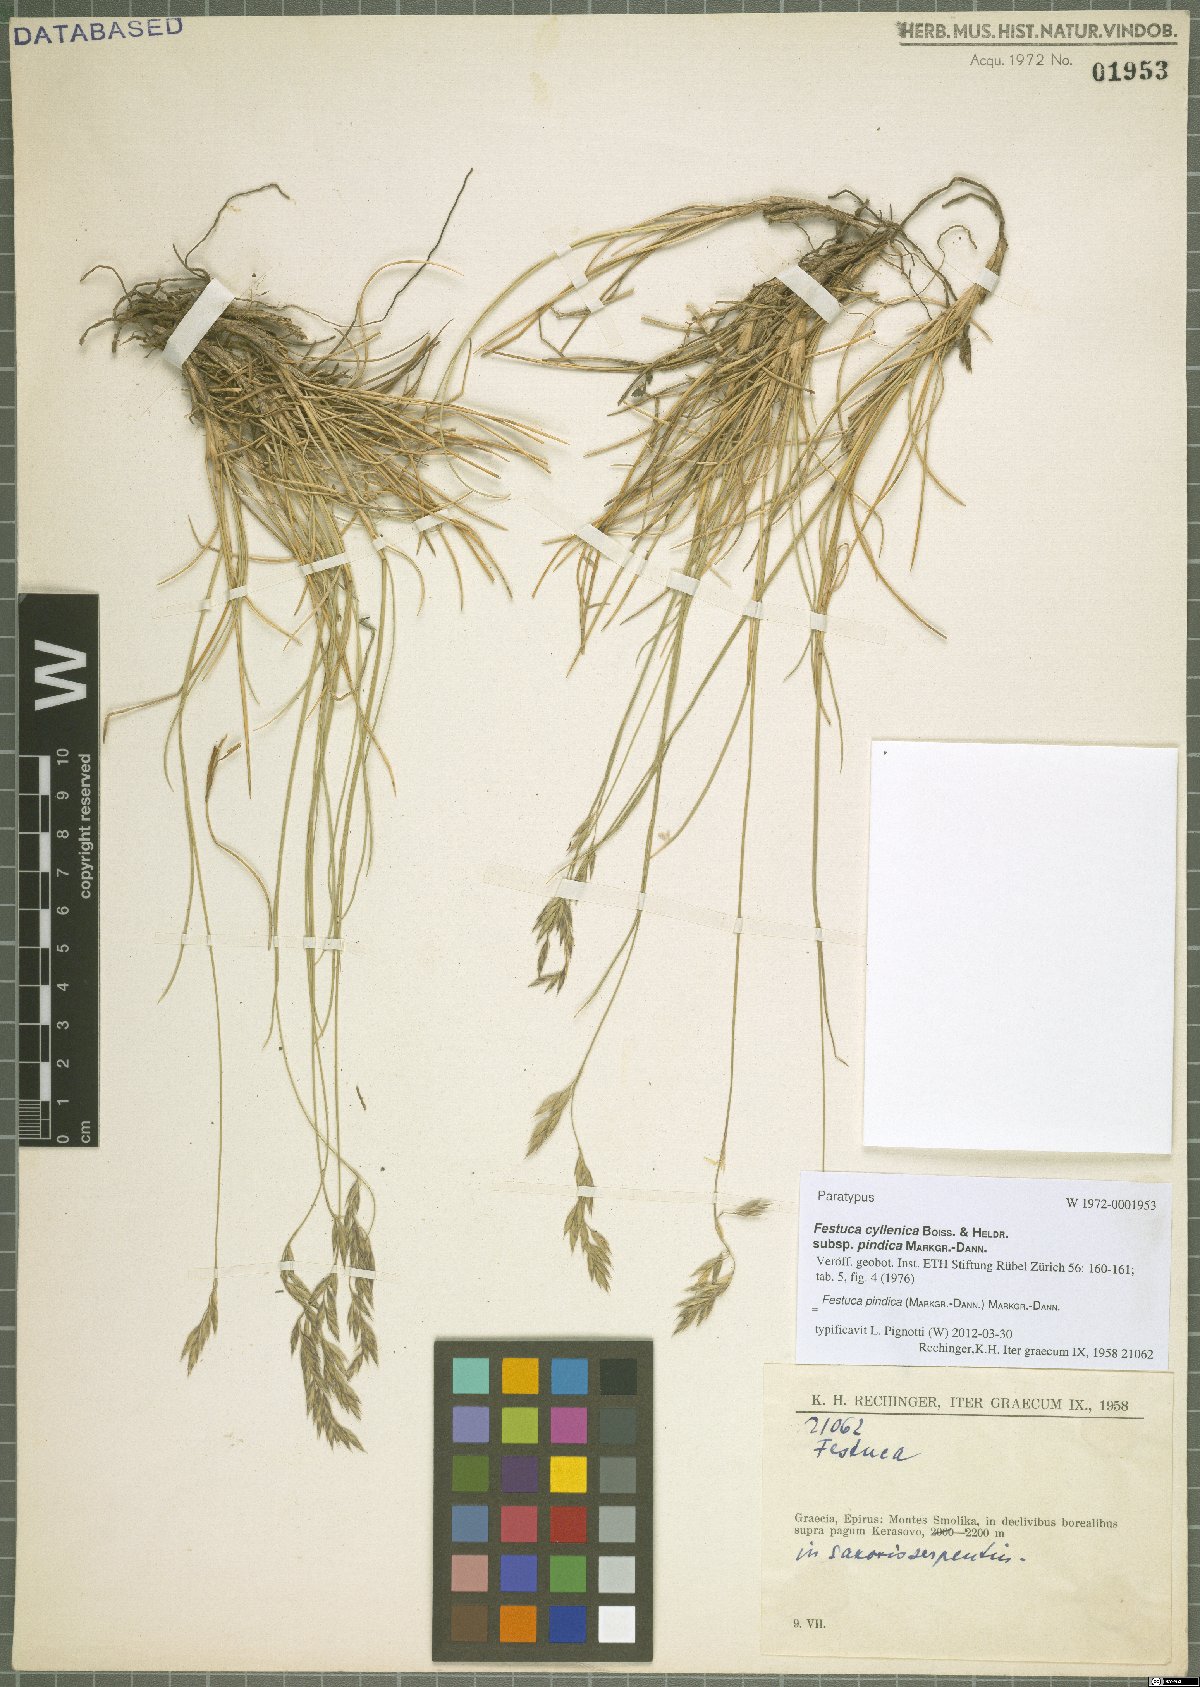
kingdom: Plantae
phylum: Tracheophyta
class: Liliopsida
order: Poales
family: Poaceae
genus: Festuca
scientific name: Festuca pindica
